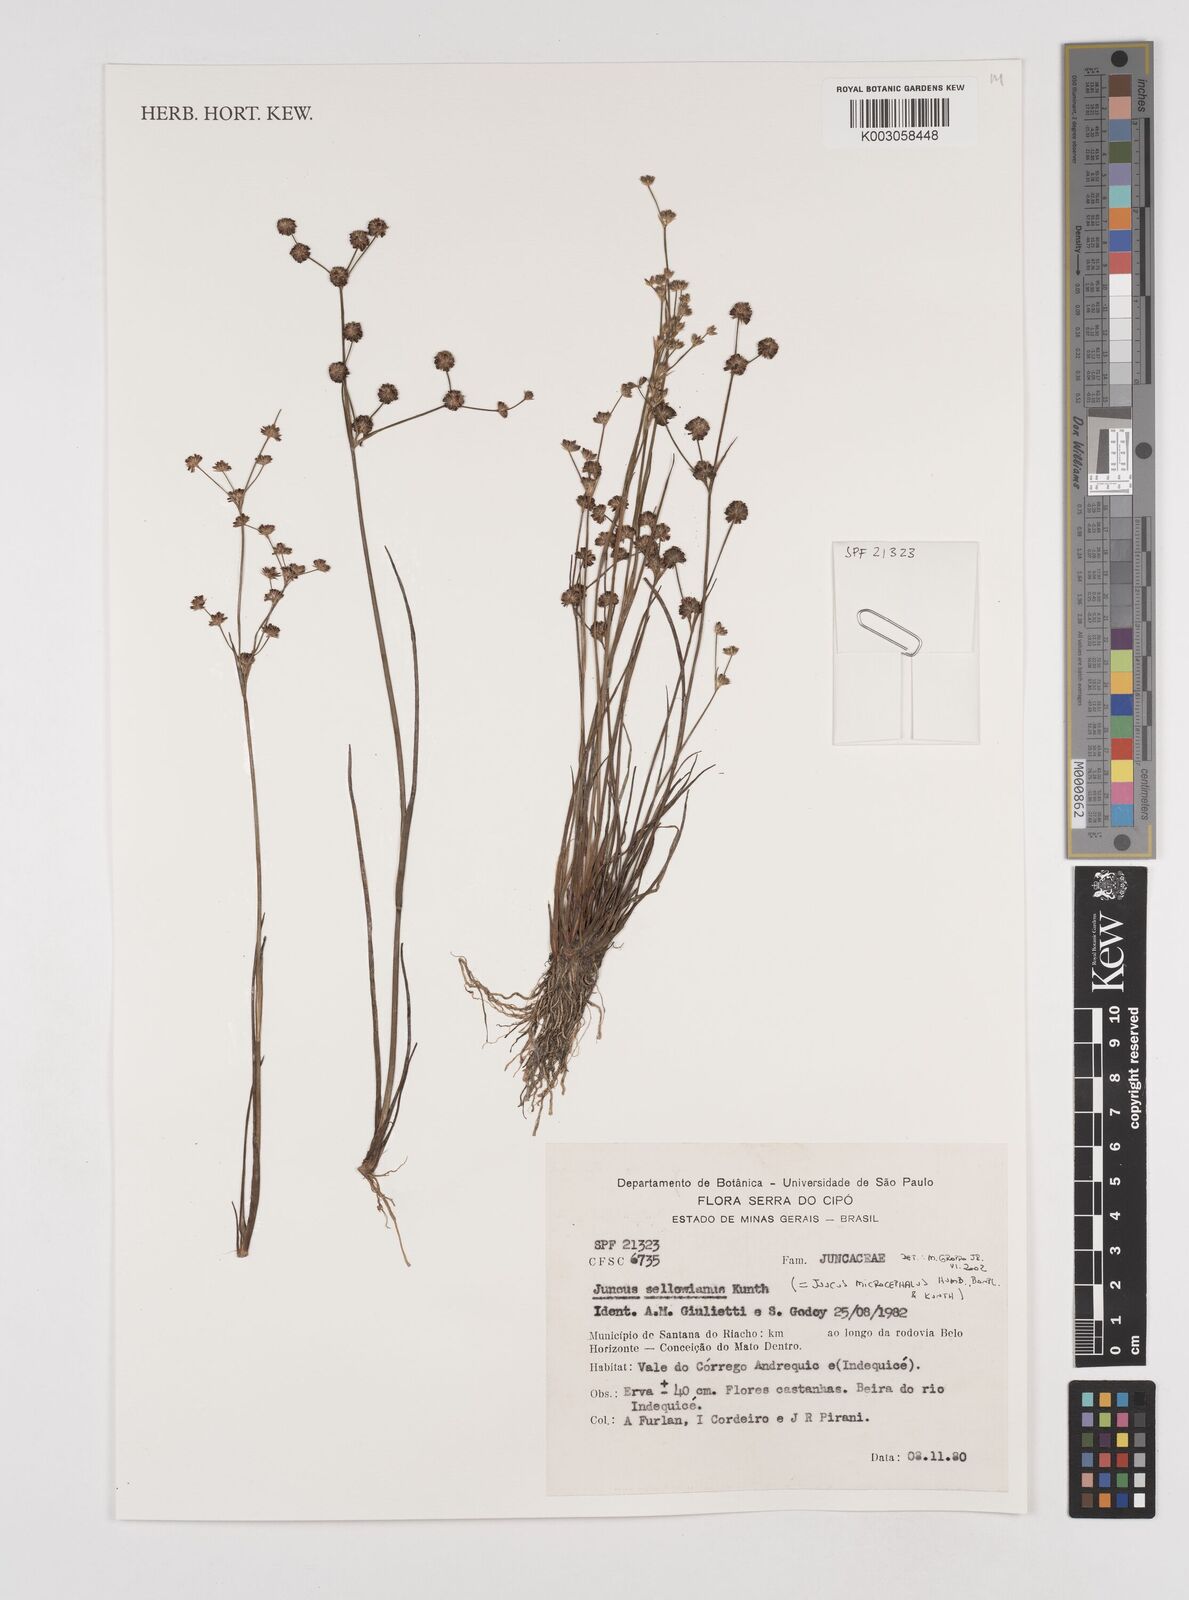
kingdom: Plantae
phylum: Tracheophyta
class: Liliopsida
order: Poales
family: Juncaceae
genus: Juncus
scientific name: Juncus microcephalus
